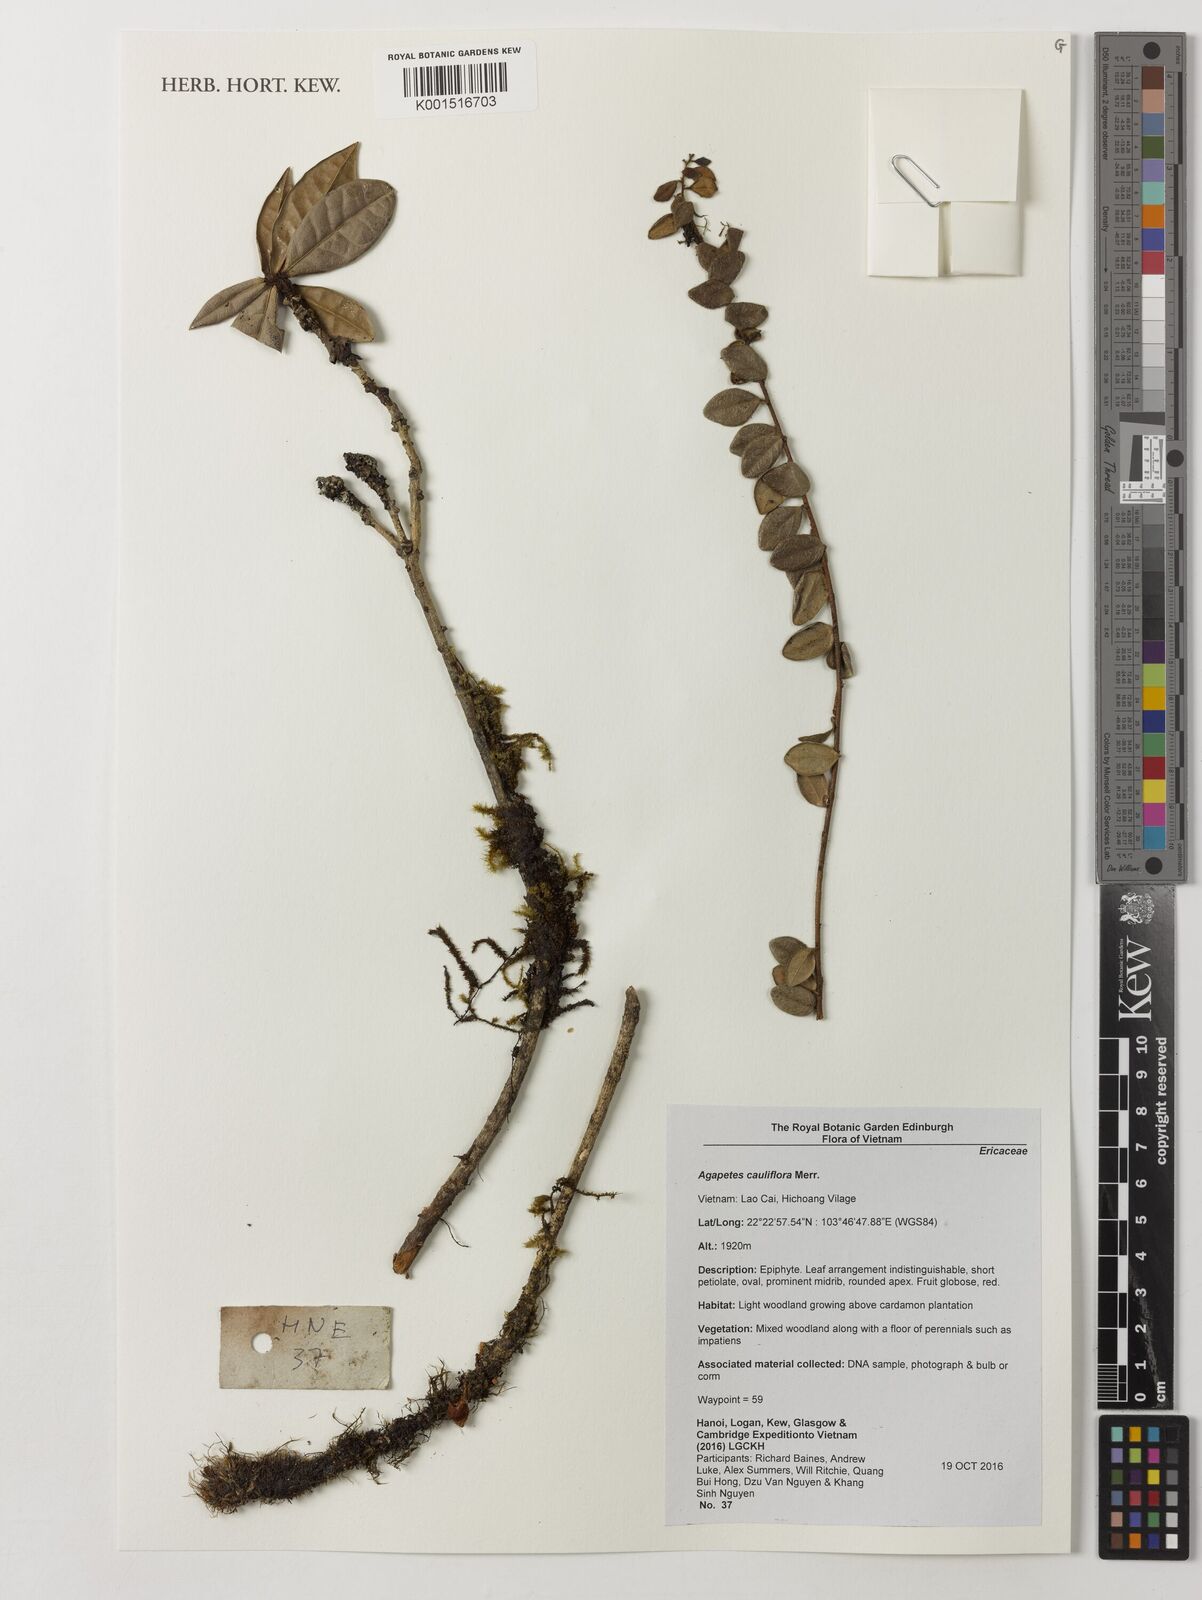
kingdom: Plantae
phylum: Tracheophyta
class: Magnoliopsida
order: Ericales
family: Ericaceae
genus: Agapetes
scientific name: Agapetes cauliflora
